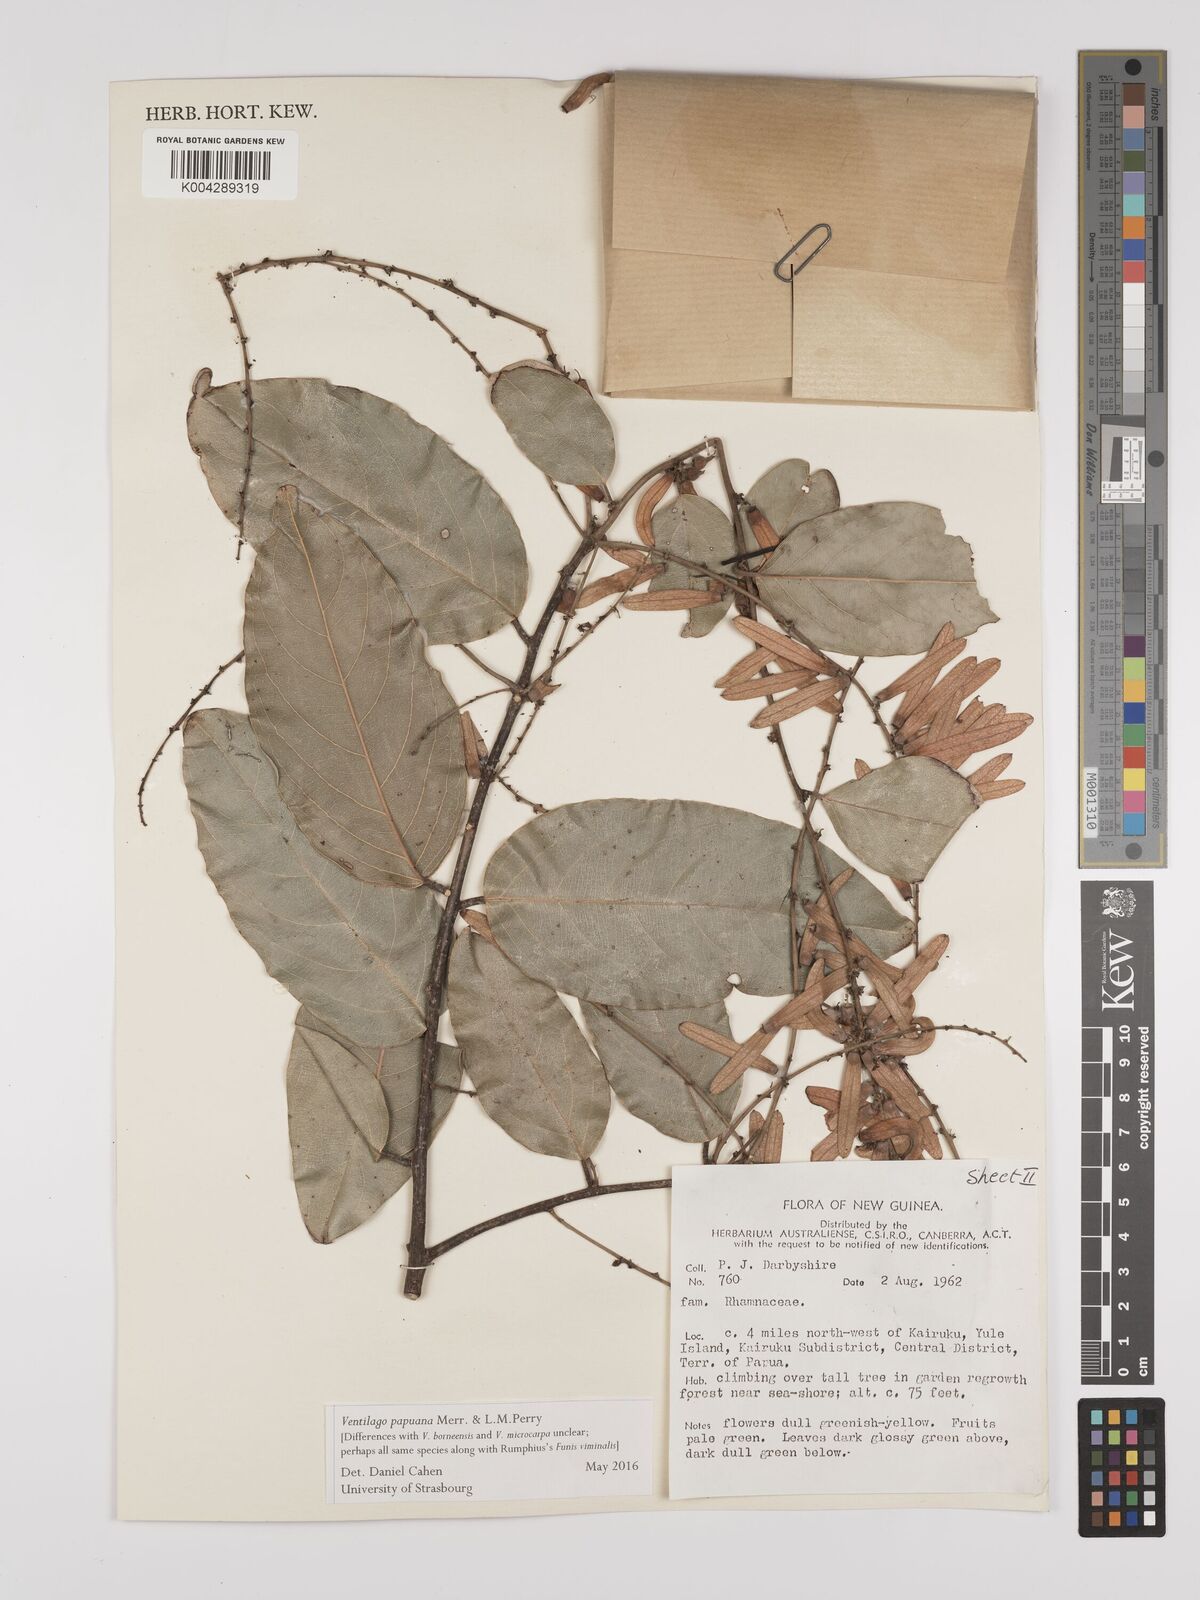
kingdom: Plantae
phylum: Tracheophyta
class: Magnoliopsida
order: Rosales
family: Rhamnaceae
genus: Ventilago
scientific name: Ventilago papuana
